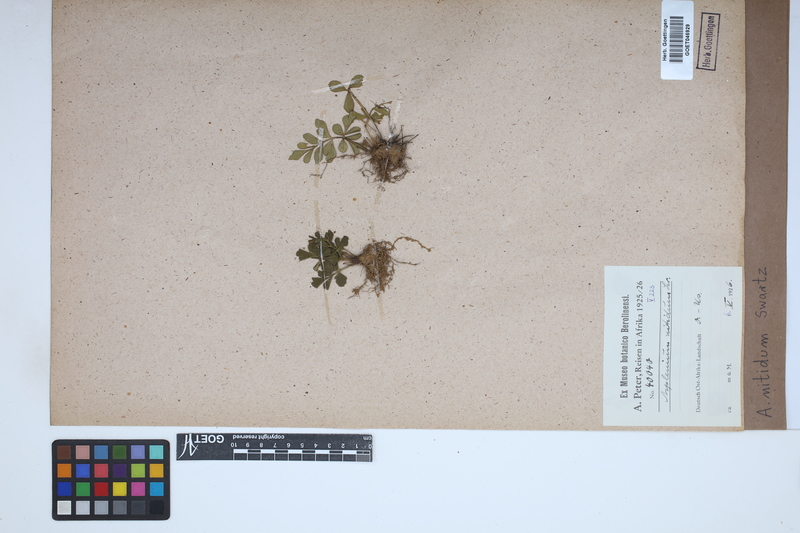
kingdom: Plantae
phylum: Tracheophyta
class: Polypodiopsida
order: Polypodiales
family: Aspleniaceae
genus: Asplenium
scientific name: Asplenium nitidum
